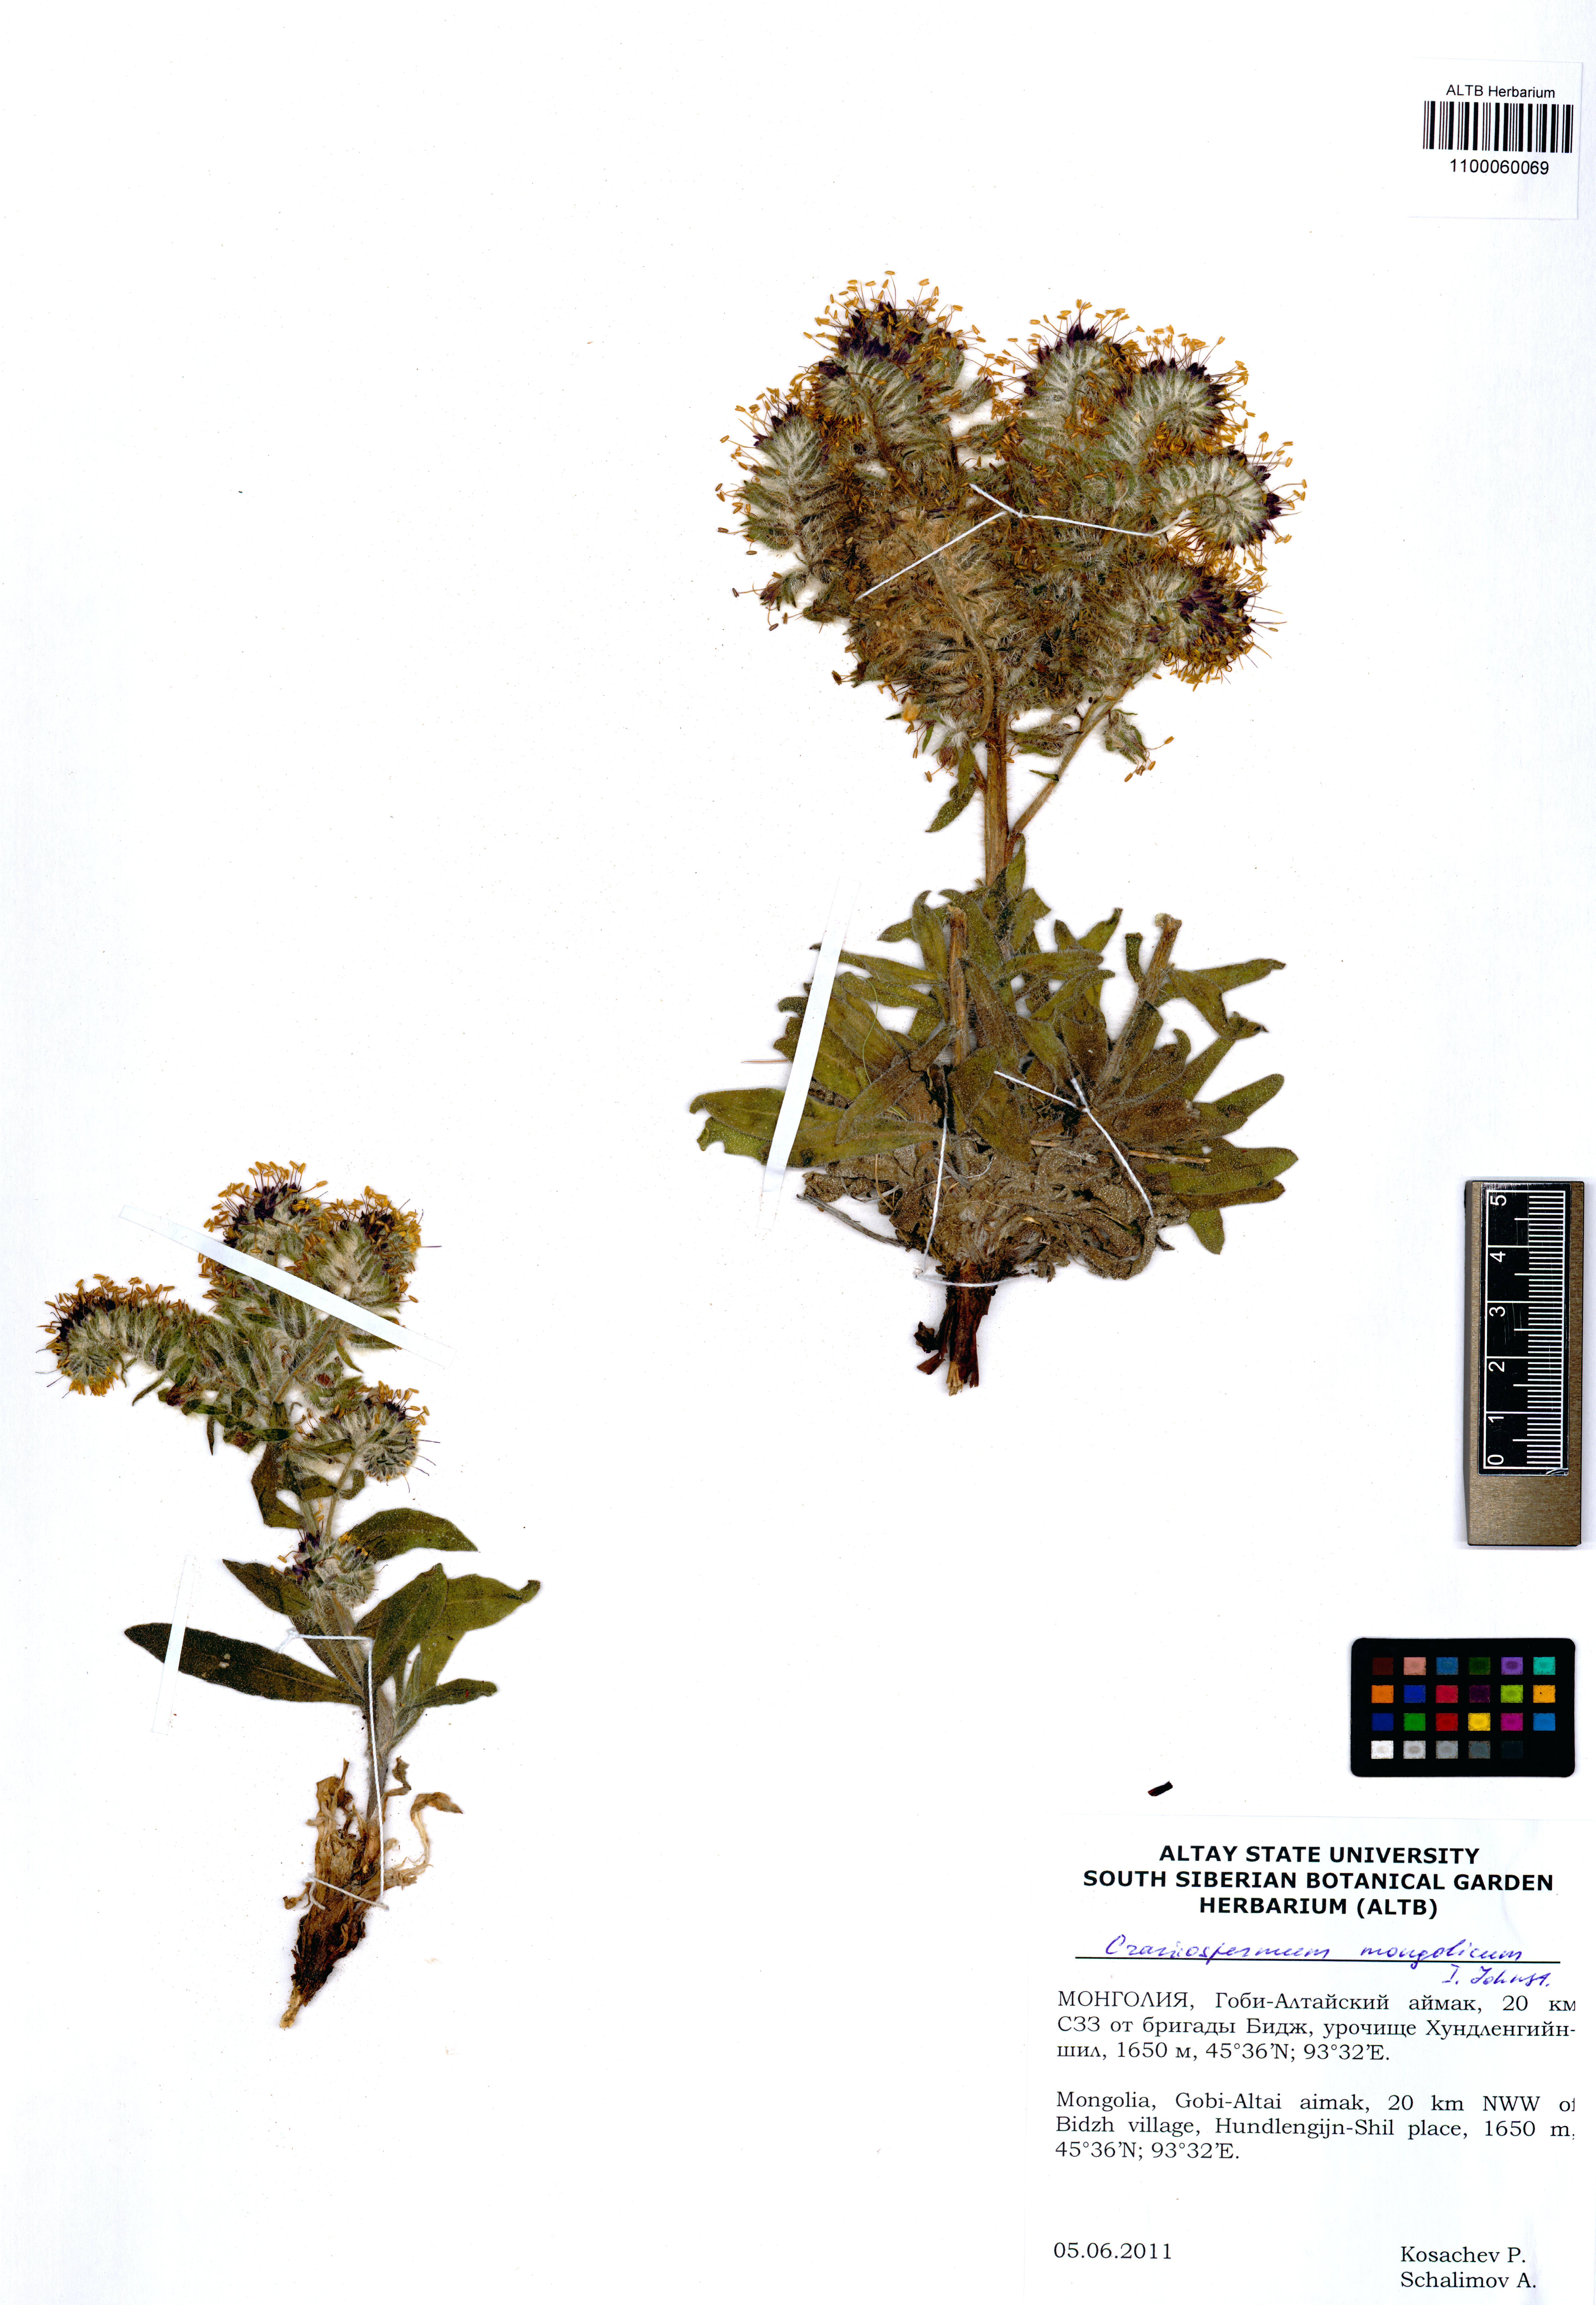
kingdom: Plantae
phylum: Tracheophyta
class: Magnoliopsida
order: Boraginales
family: Boraginaceae
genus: Craniospermum
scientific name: Craniospermum mongolicum
